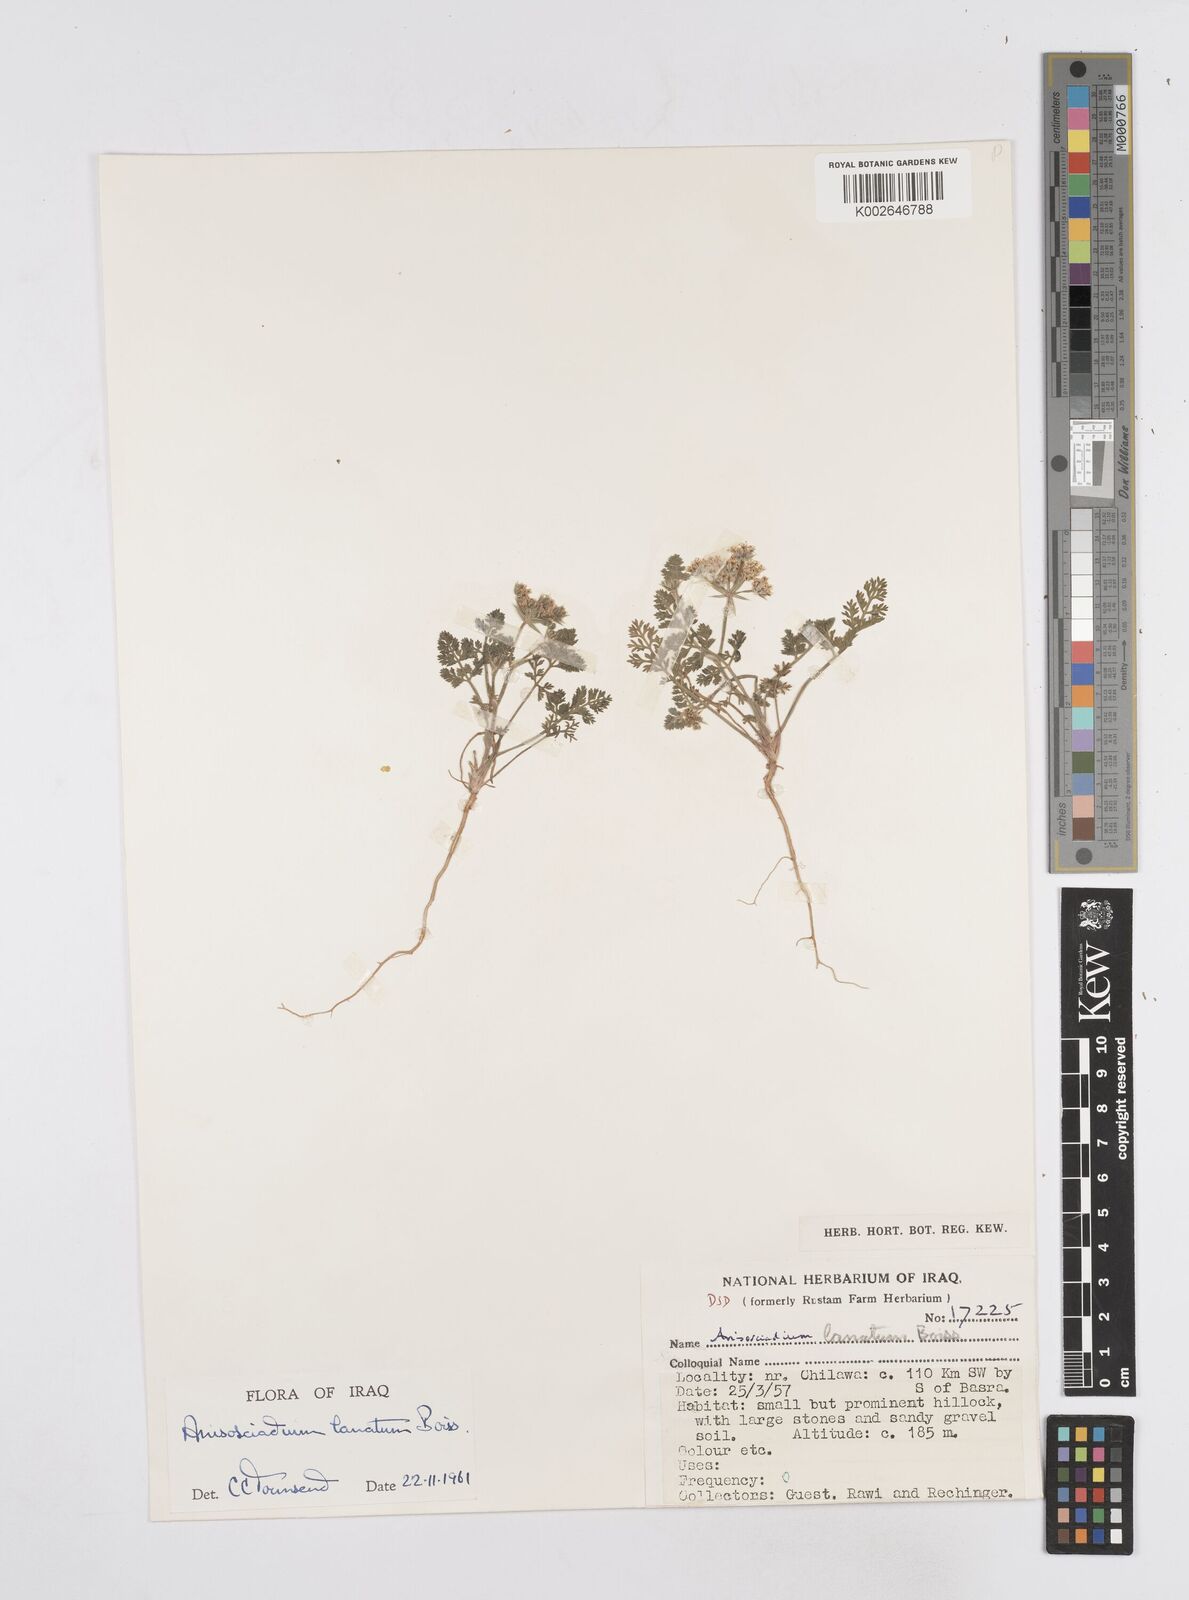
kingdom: Plantae
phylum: Tracheophyta
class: Magnoliopsida
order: Apiales
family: Apiaceae
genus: Anisosciadium
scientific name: Anisosciadium lanatum
